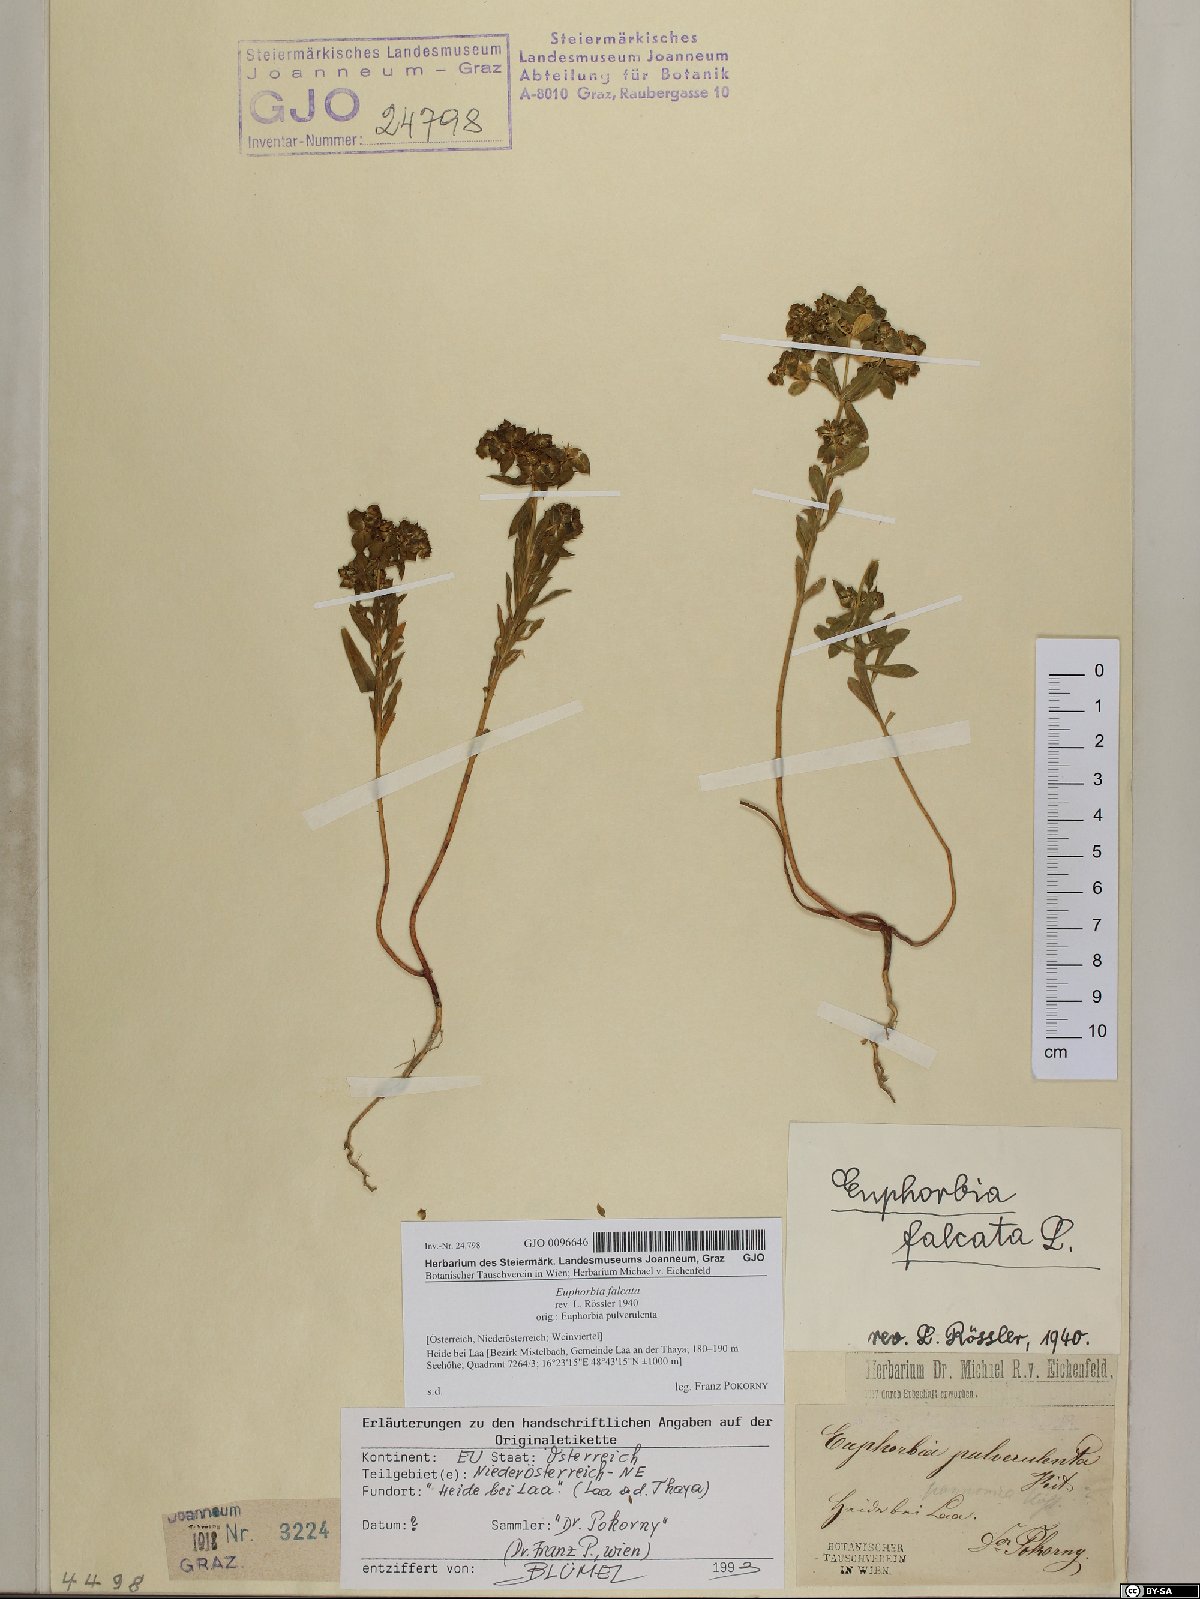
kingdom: Plantae
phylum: Tracheophyta
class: Magnoliopsida
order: Malpighiales
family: Euphorbiaceae
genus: Euphorbia
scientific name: Euphorbia falcata
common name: Sickle spurge
